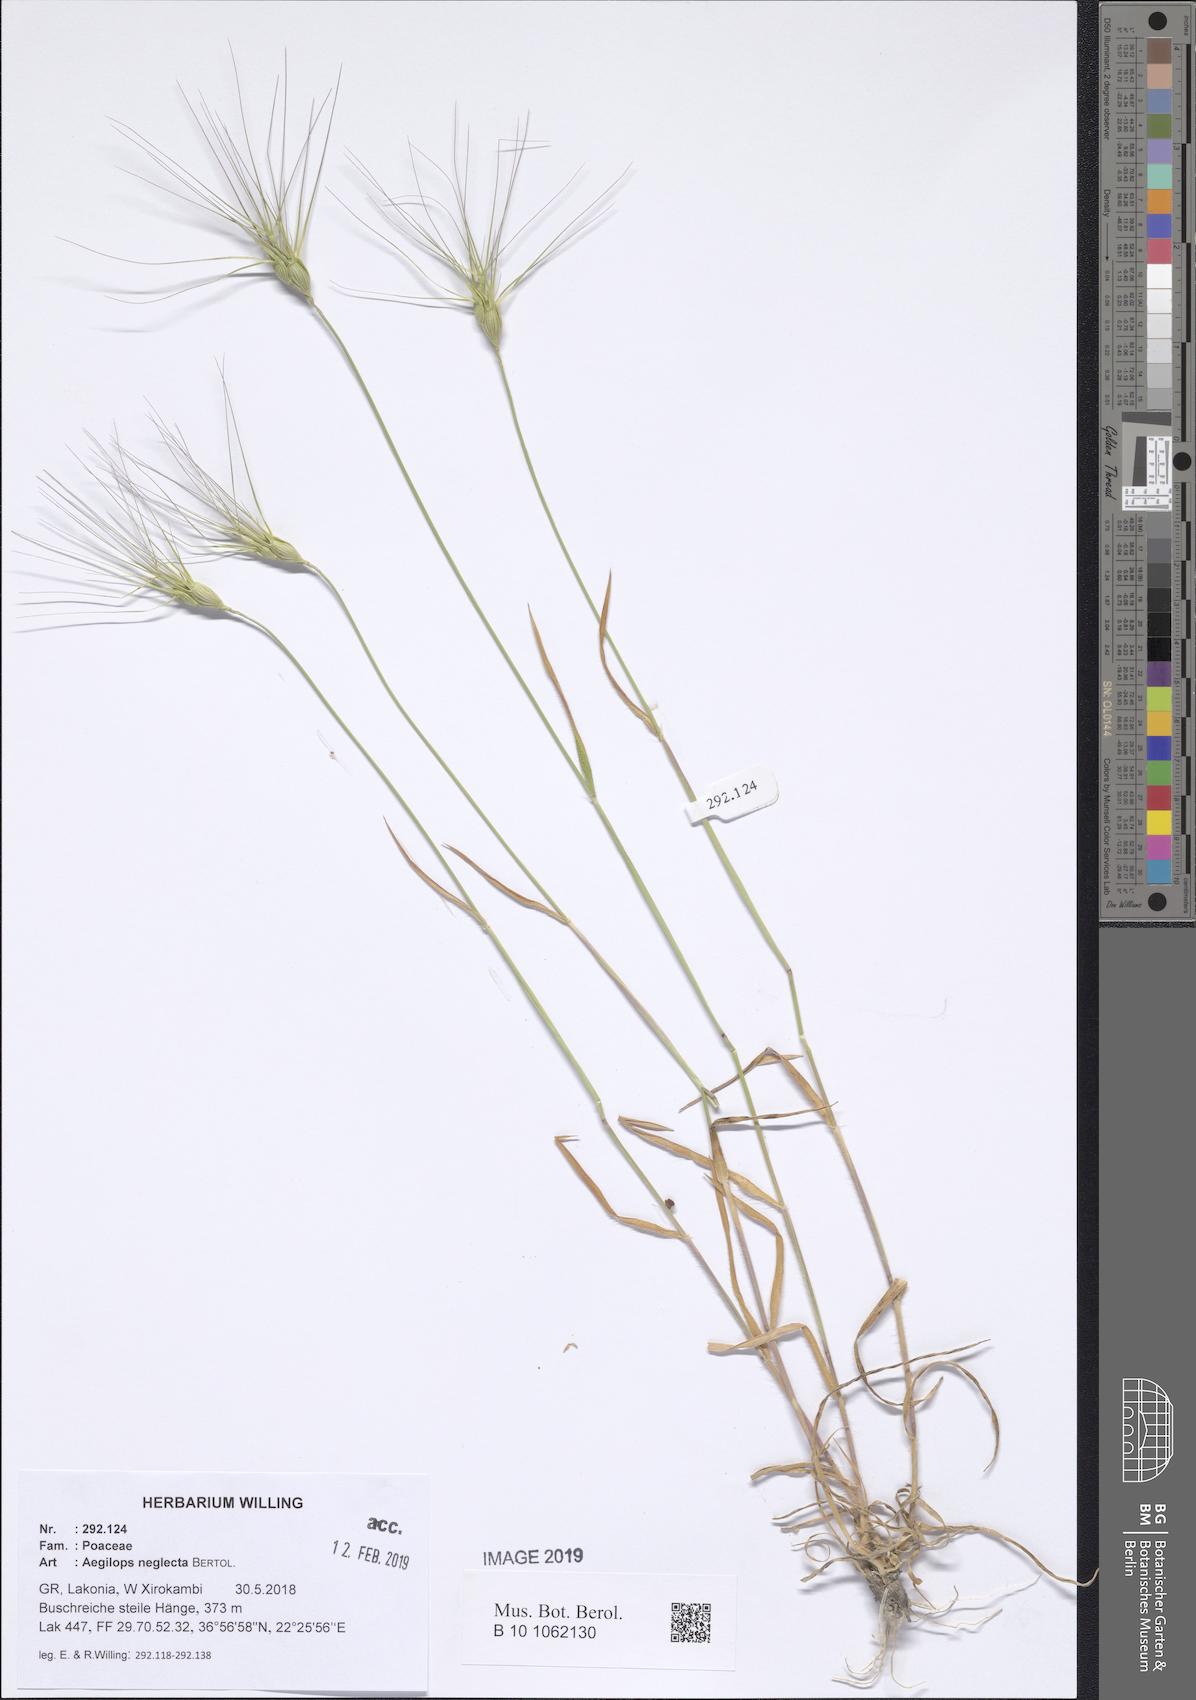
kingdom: Plantae
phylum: Tracheophyta
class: Liliopsida
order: Poales
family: Poaceae
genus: Aegilops
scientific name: Aegilops neglecta
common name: Three-awn goat grass
